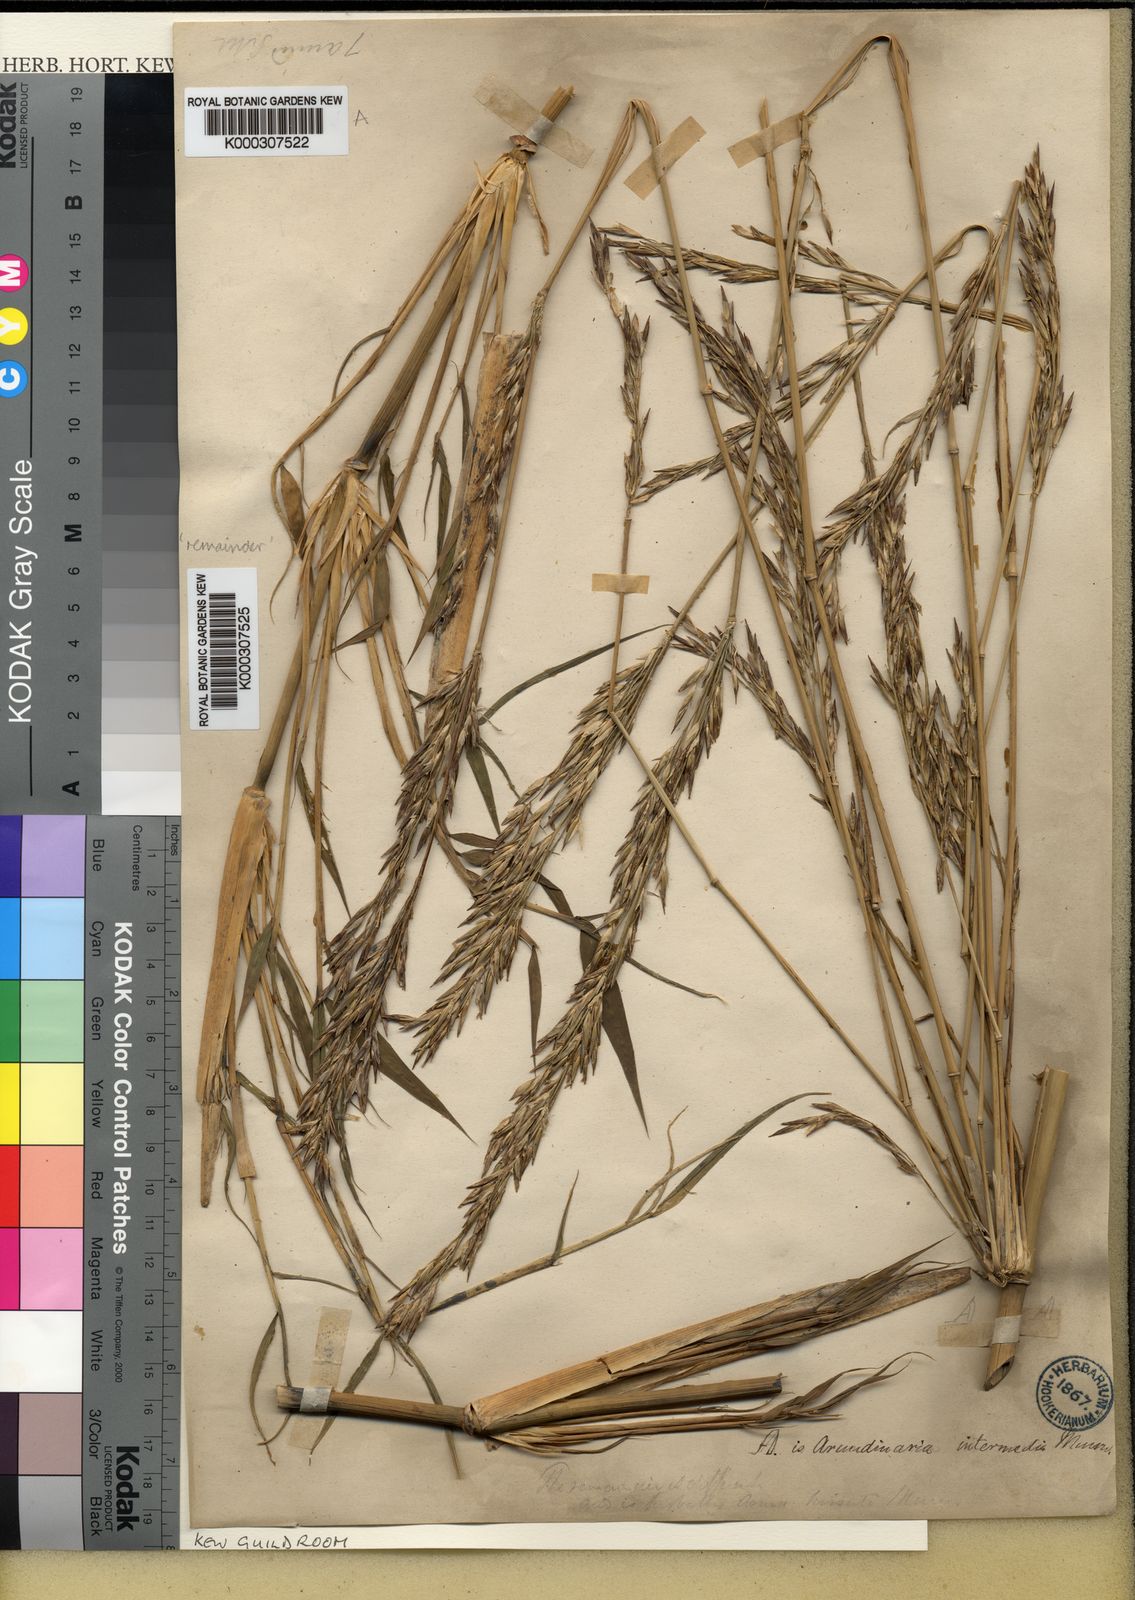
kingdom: Plantae
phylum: Tracheophyta
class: Liliopsida
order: Poales
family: Poaceae
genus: Drepanostachyum
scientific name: Drepanostachyum intermedium
